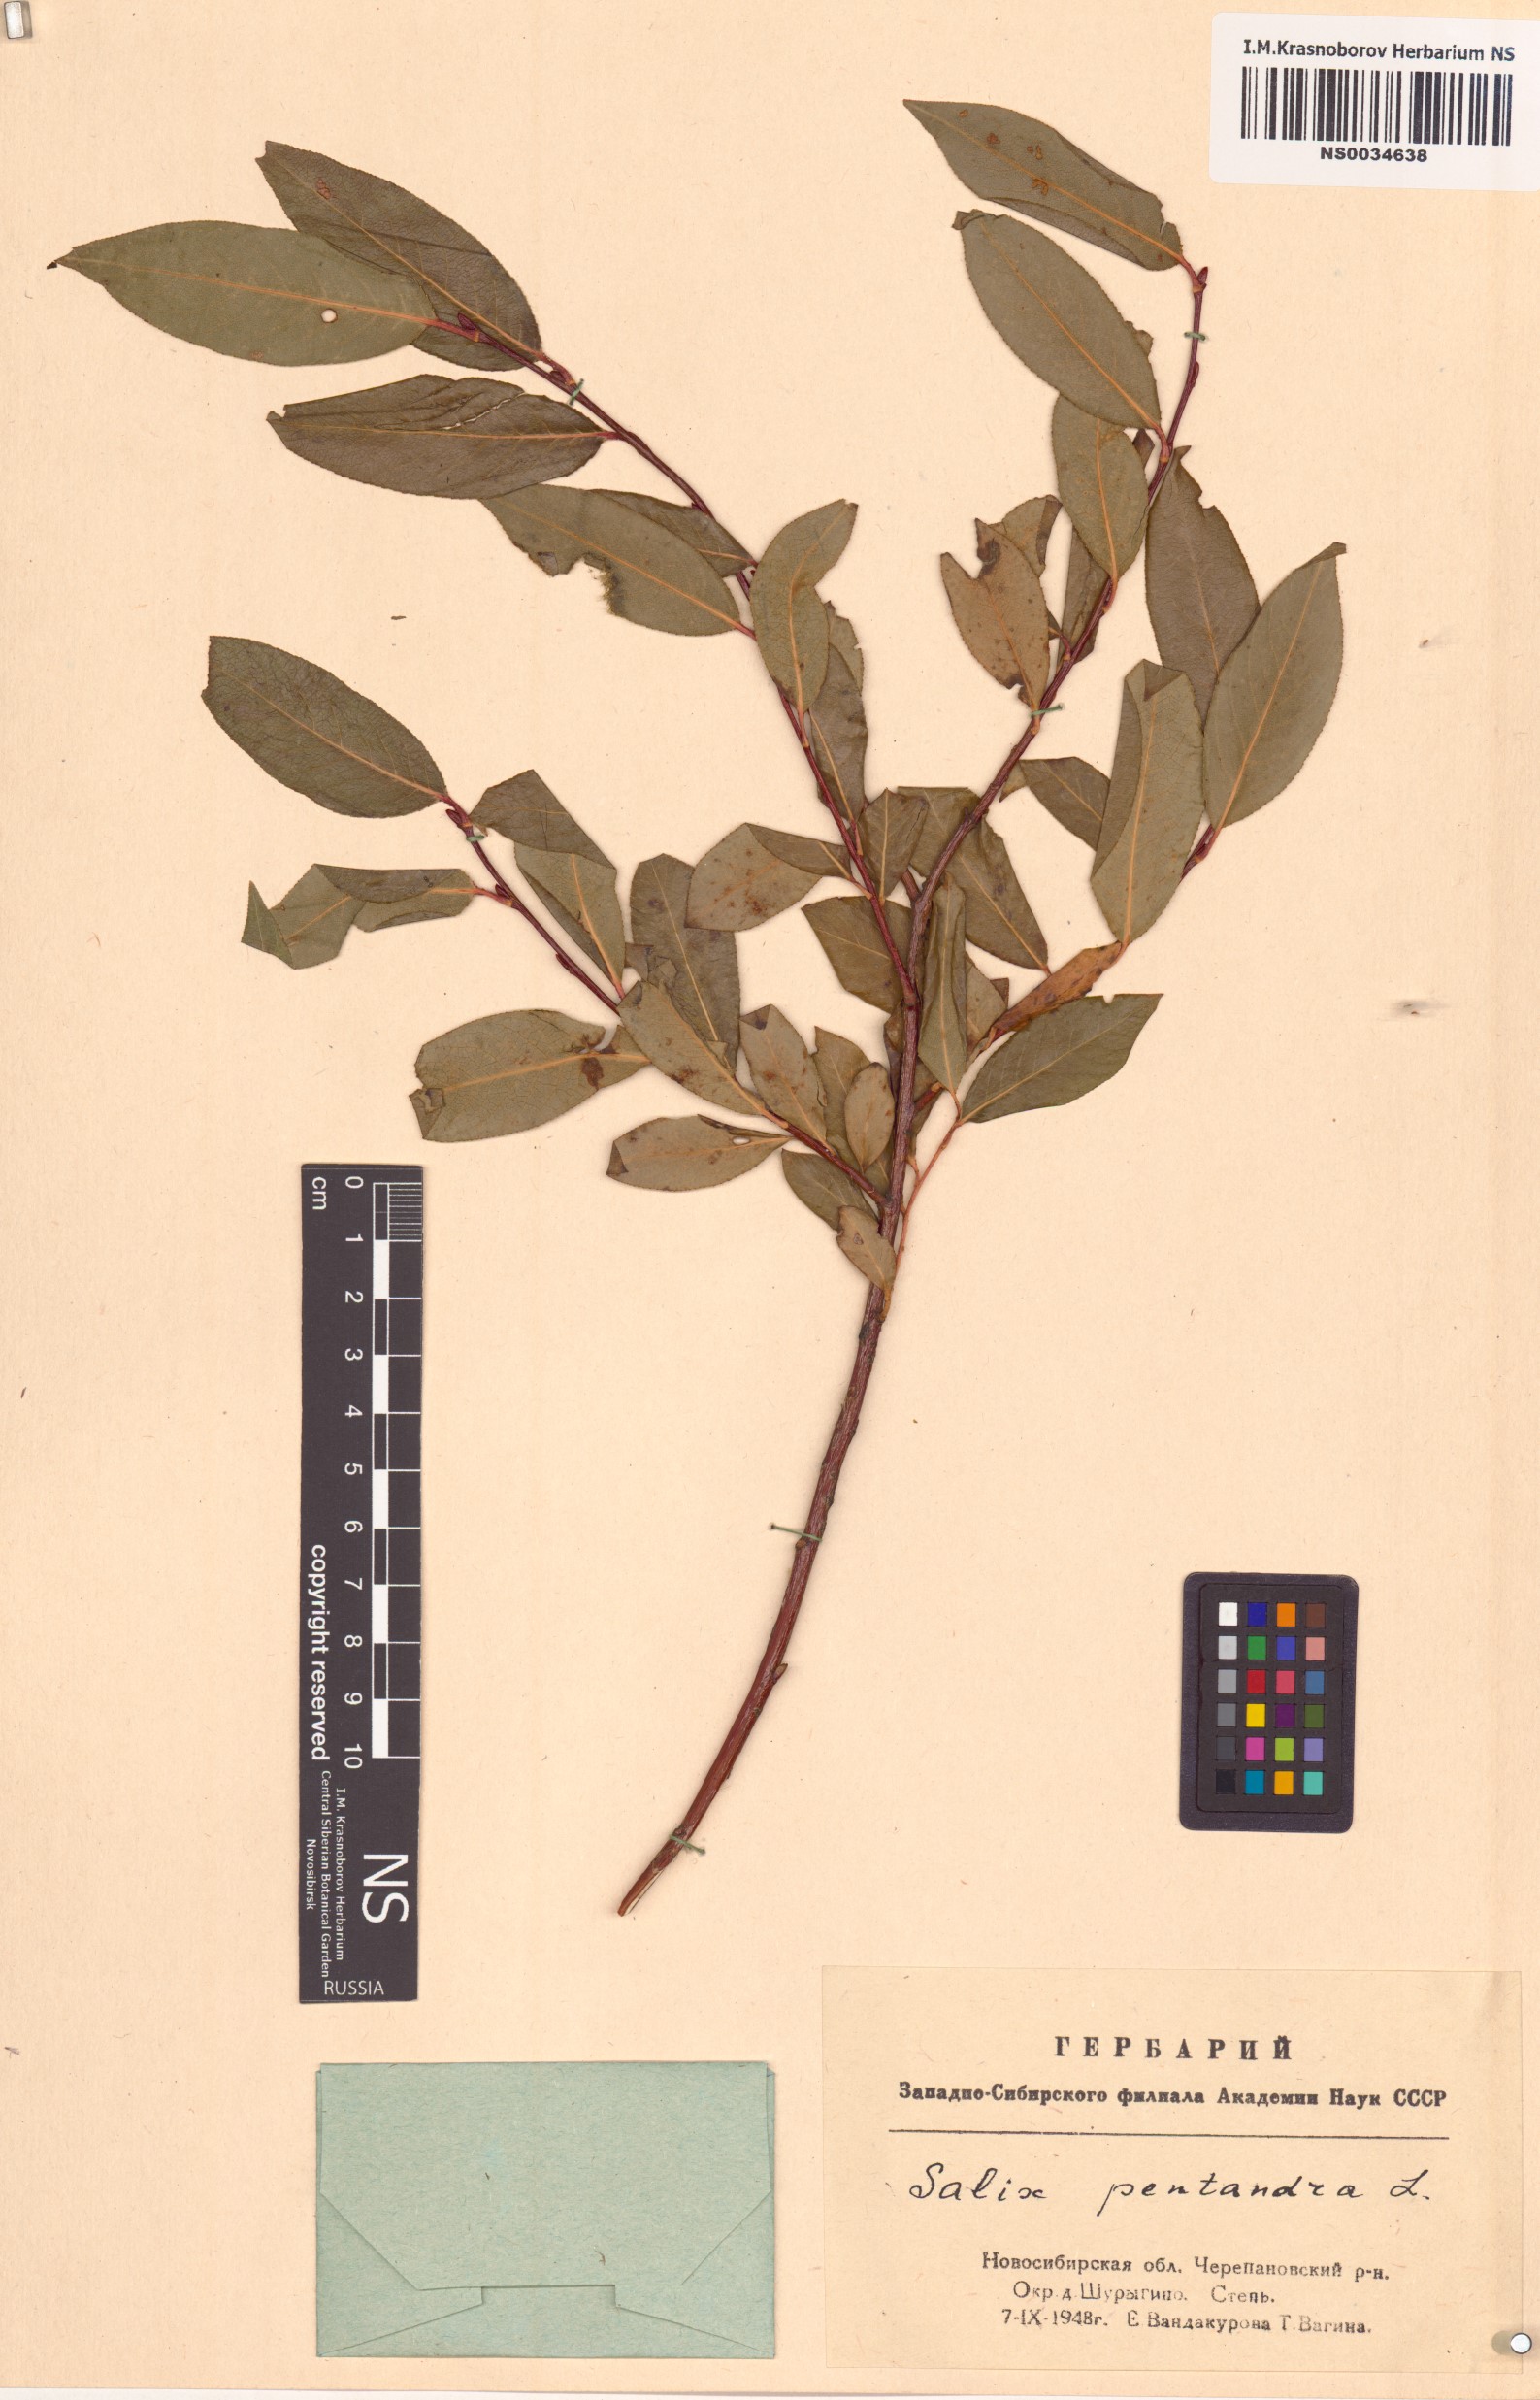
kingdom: Plantae
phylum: Tracheophyta
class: Magnoliopsida
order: Malpighiales
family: Salicaceae
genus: Salix
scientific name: Salix pentandra
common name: Bay willow
